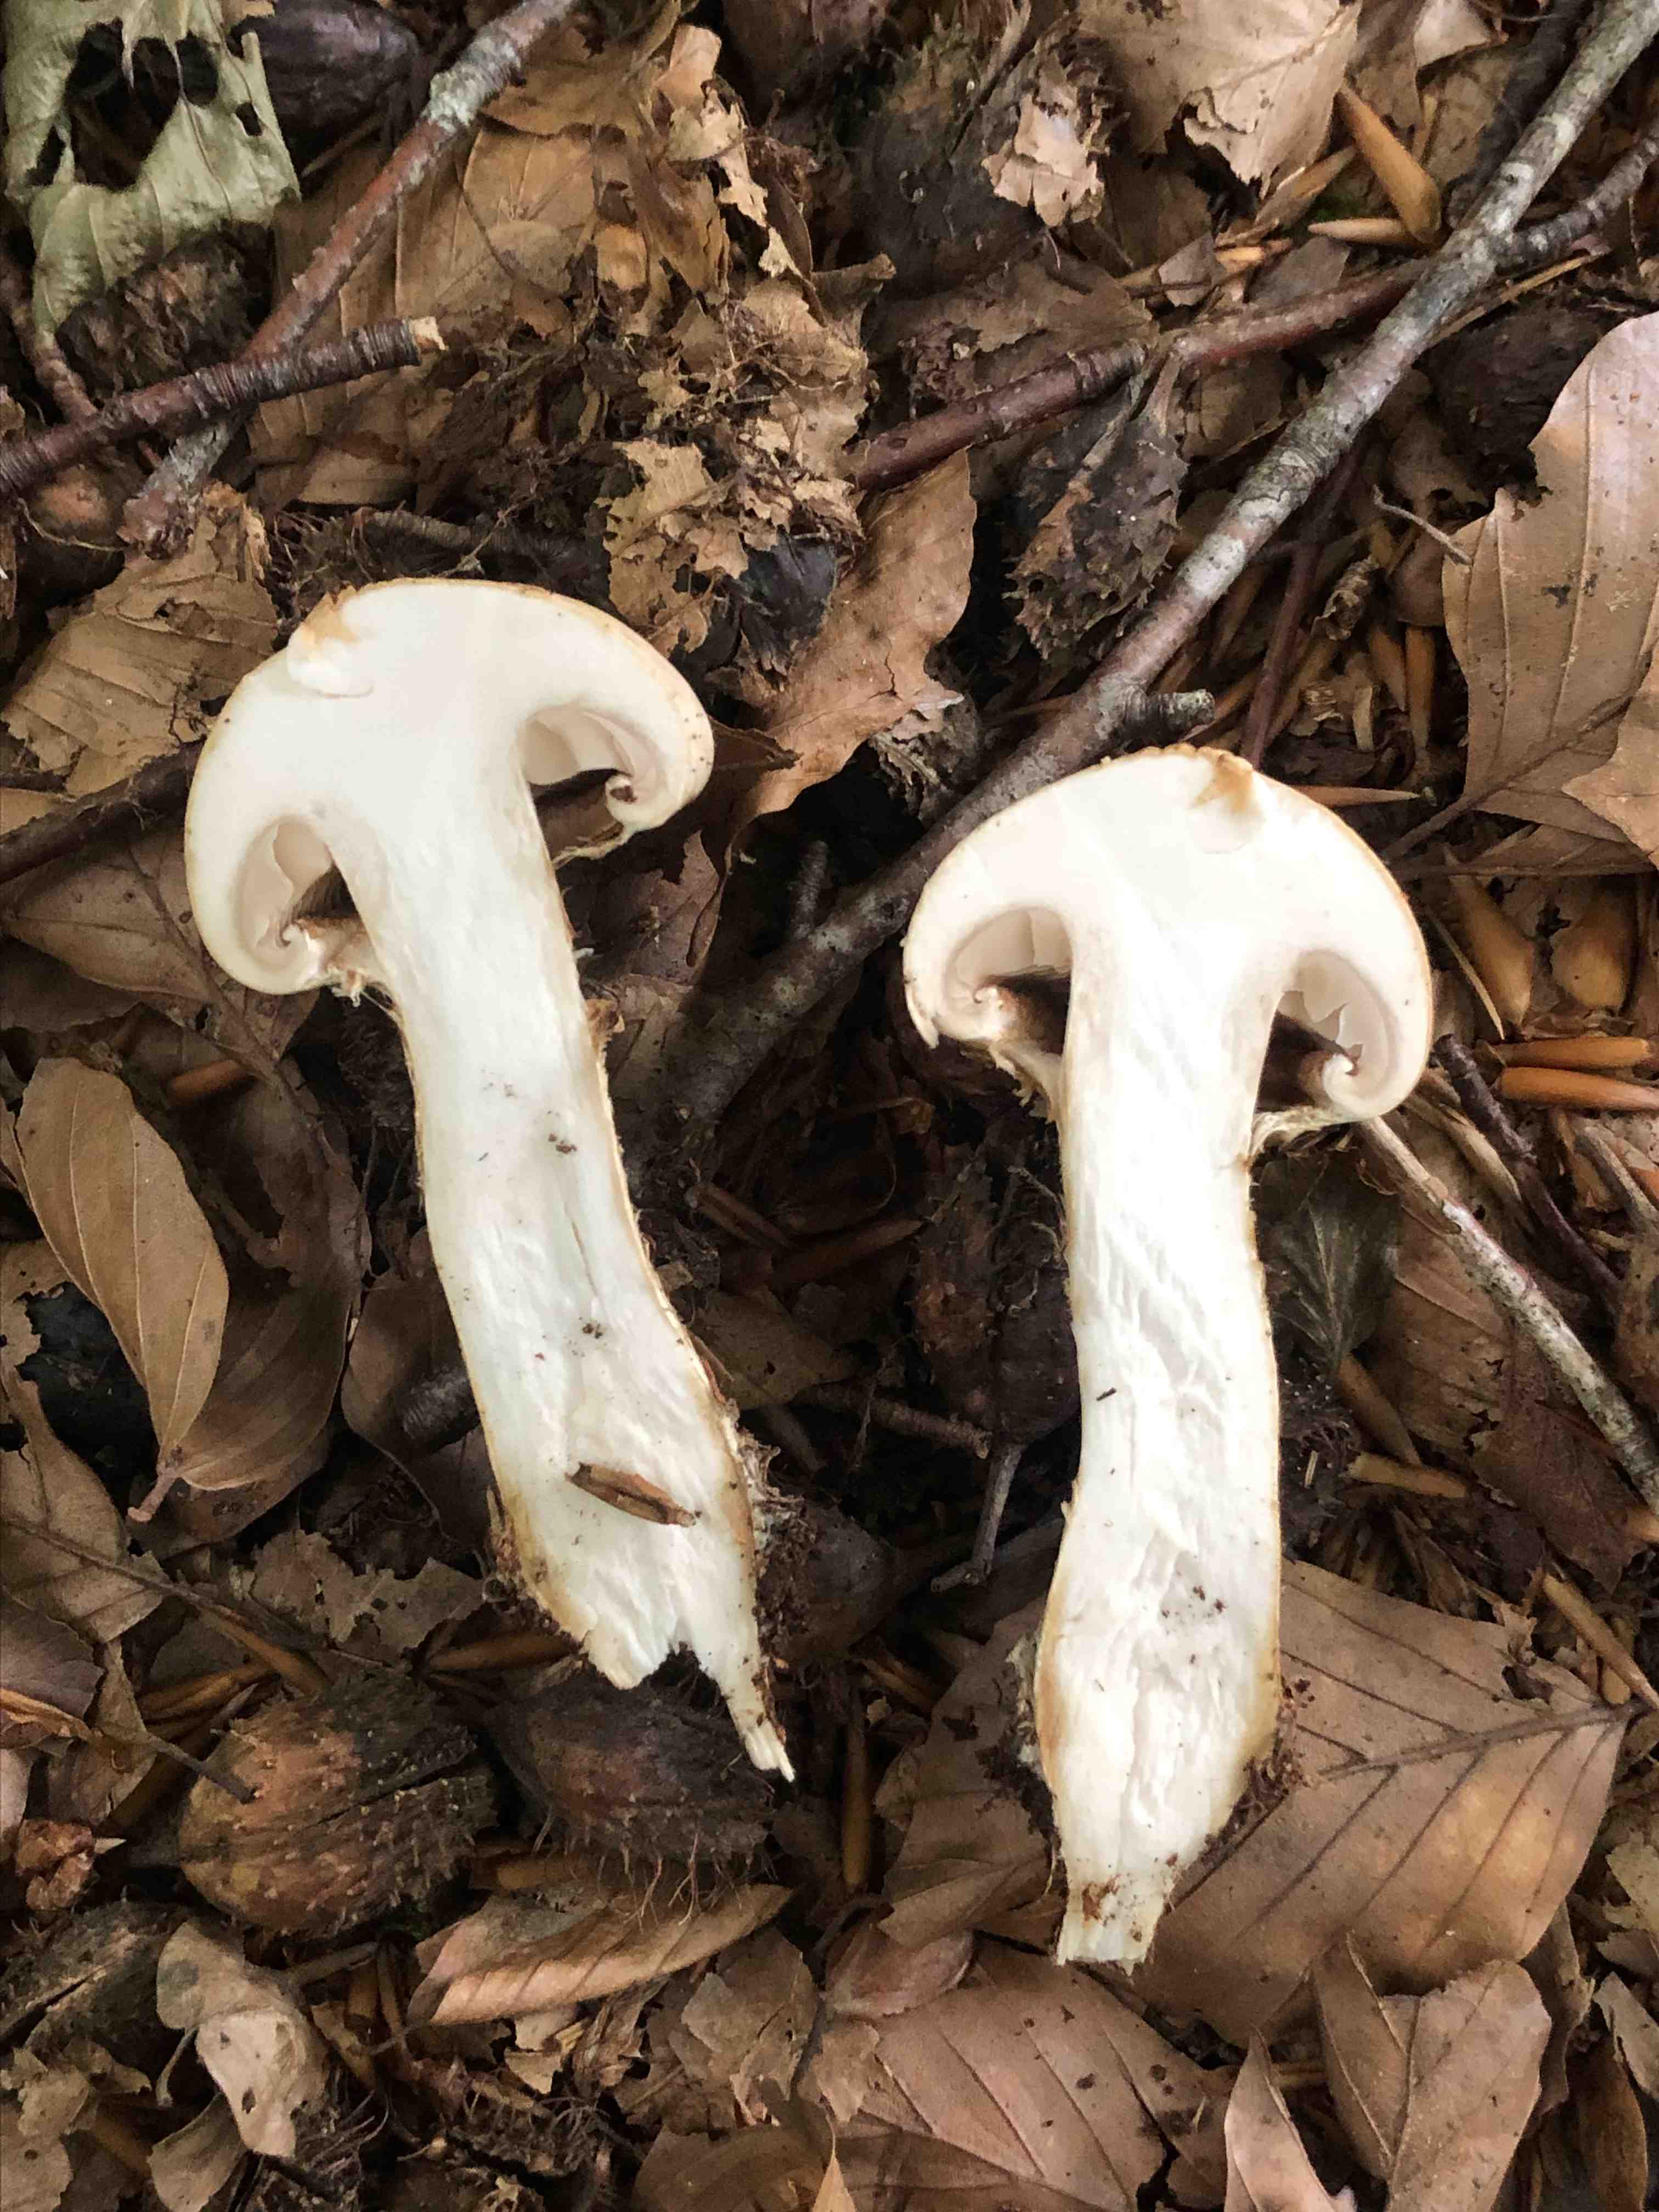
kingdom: Fungi
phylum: Basidiomycota
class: Agaricomycetes
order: Agaricales
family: Hymenogastraceae
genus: Hebeloma
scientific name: Hebeloma radicosum
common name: pælerods-tåreblad
